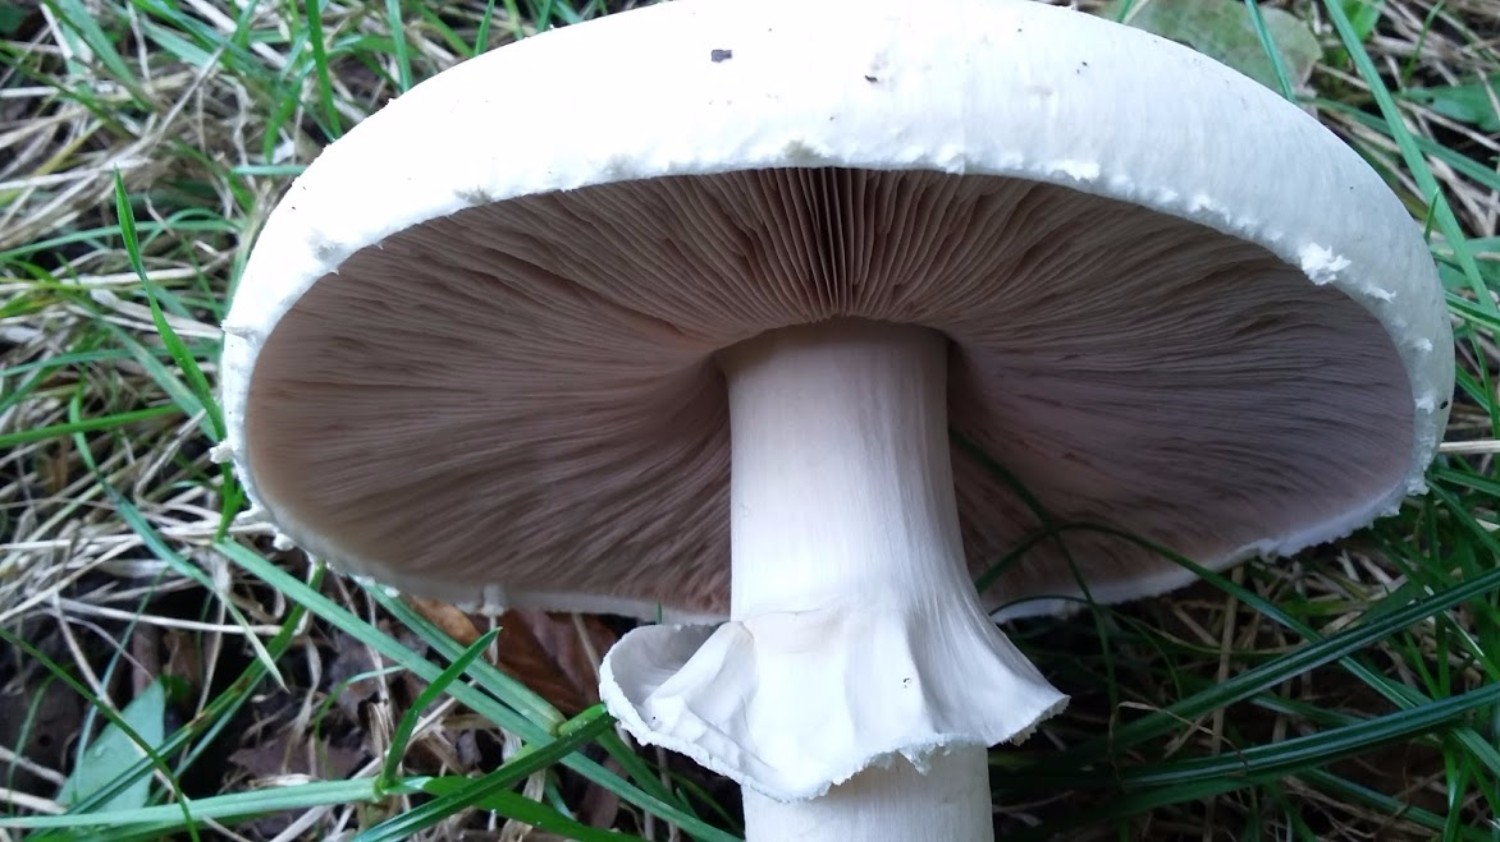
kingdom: Fungi
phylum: Basidiomycota
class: Agaricomycetes
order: Agaricales
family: Agaricaceae
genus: Agaricus
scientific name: Agaricus arvensis
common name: ager-champignon
